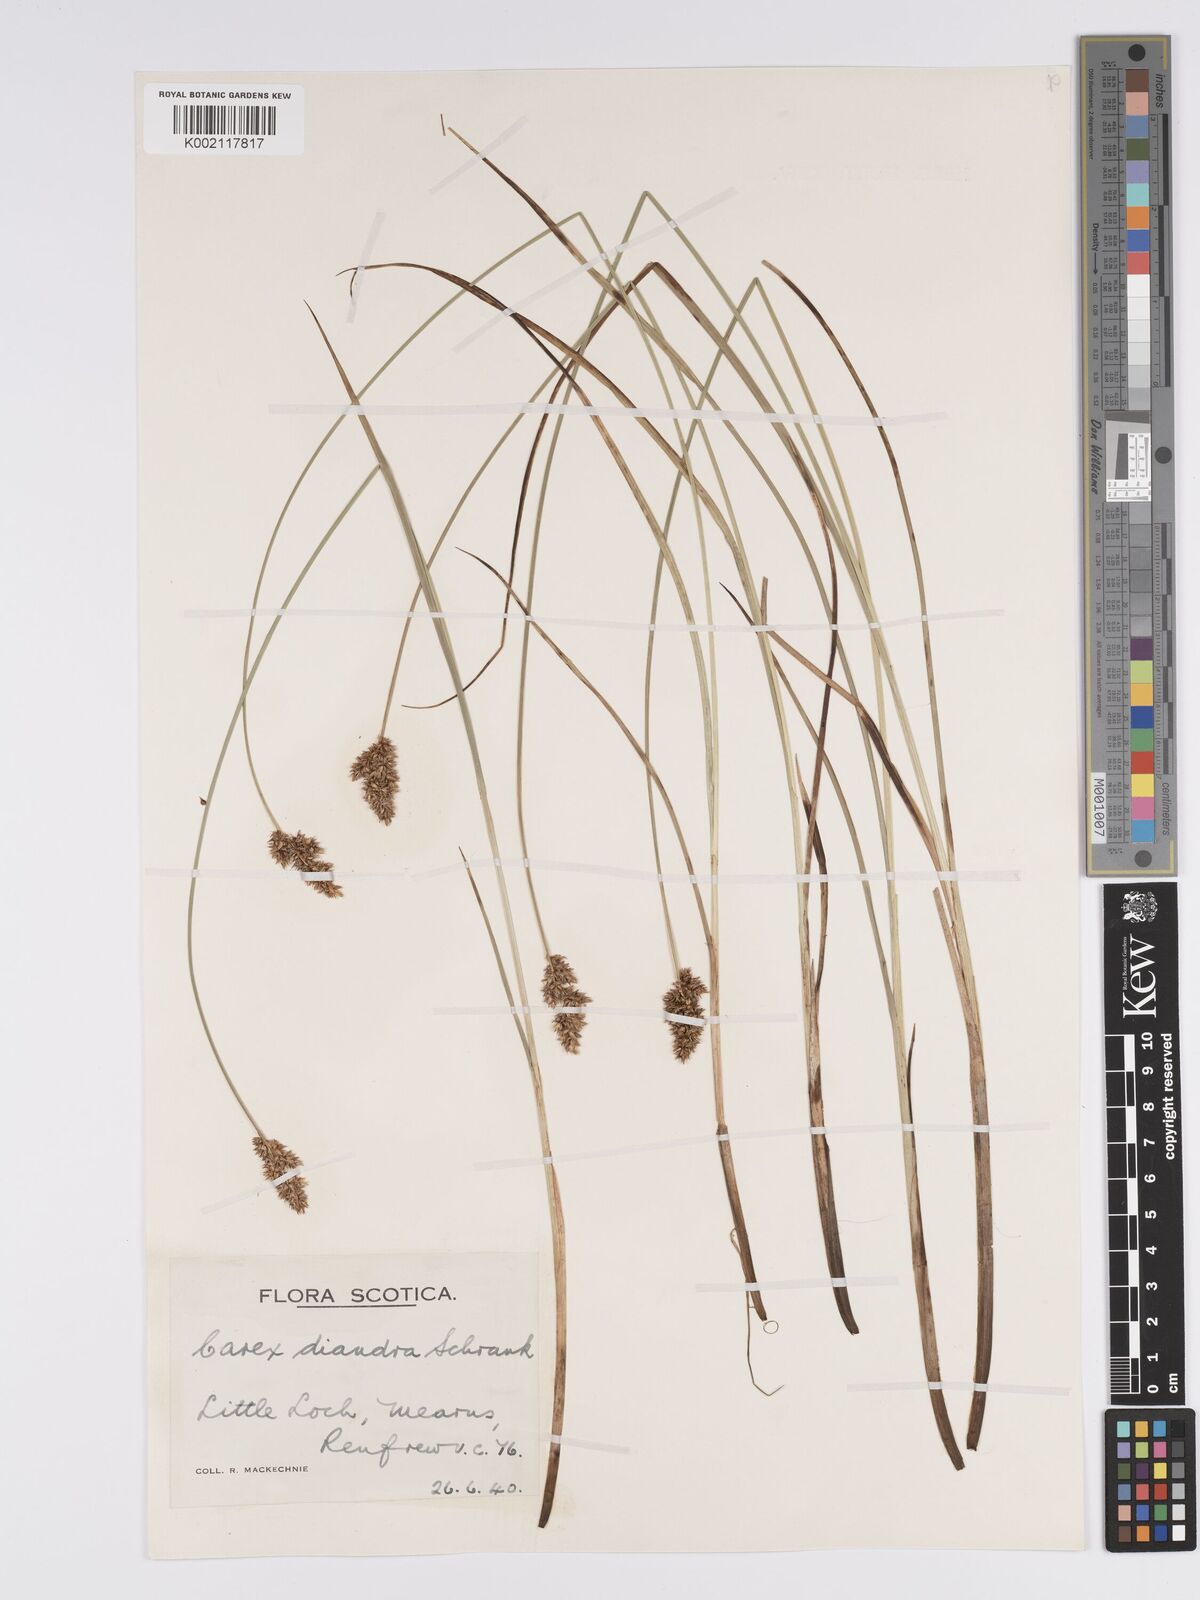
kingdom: Plantae
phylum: Tracheophyta
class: Liliopsida
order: Poales
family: Cyperaceae
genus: Carex
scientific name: Carex diandra
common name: Lesser tussock-sedge
